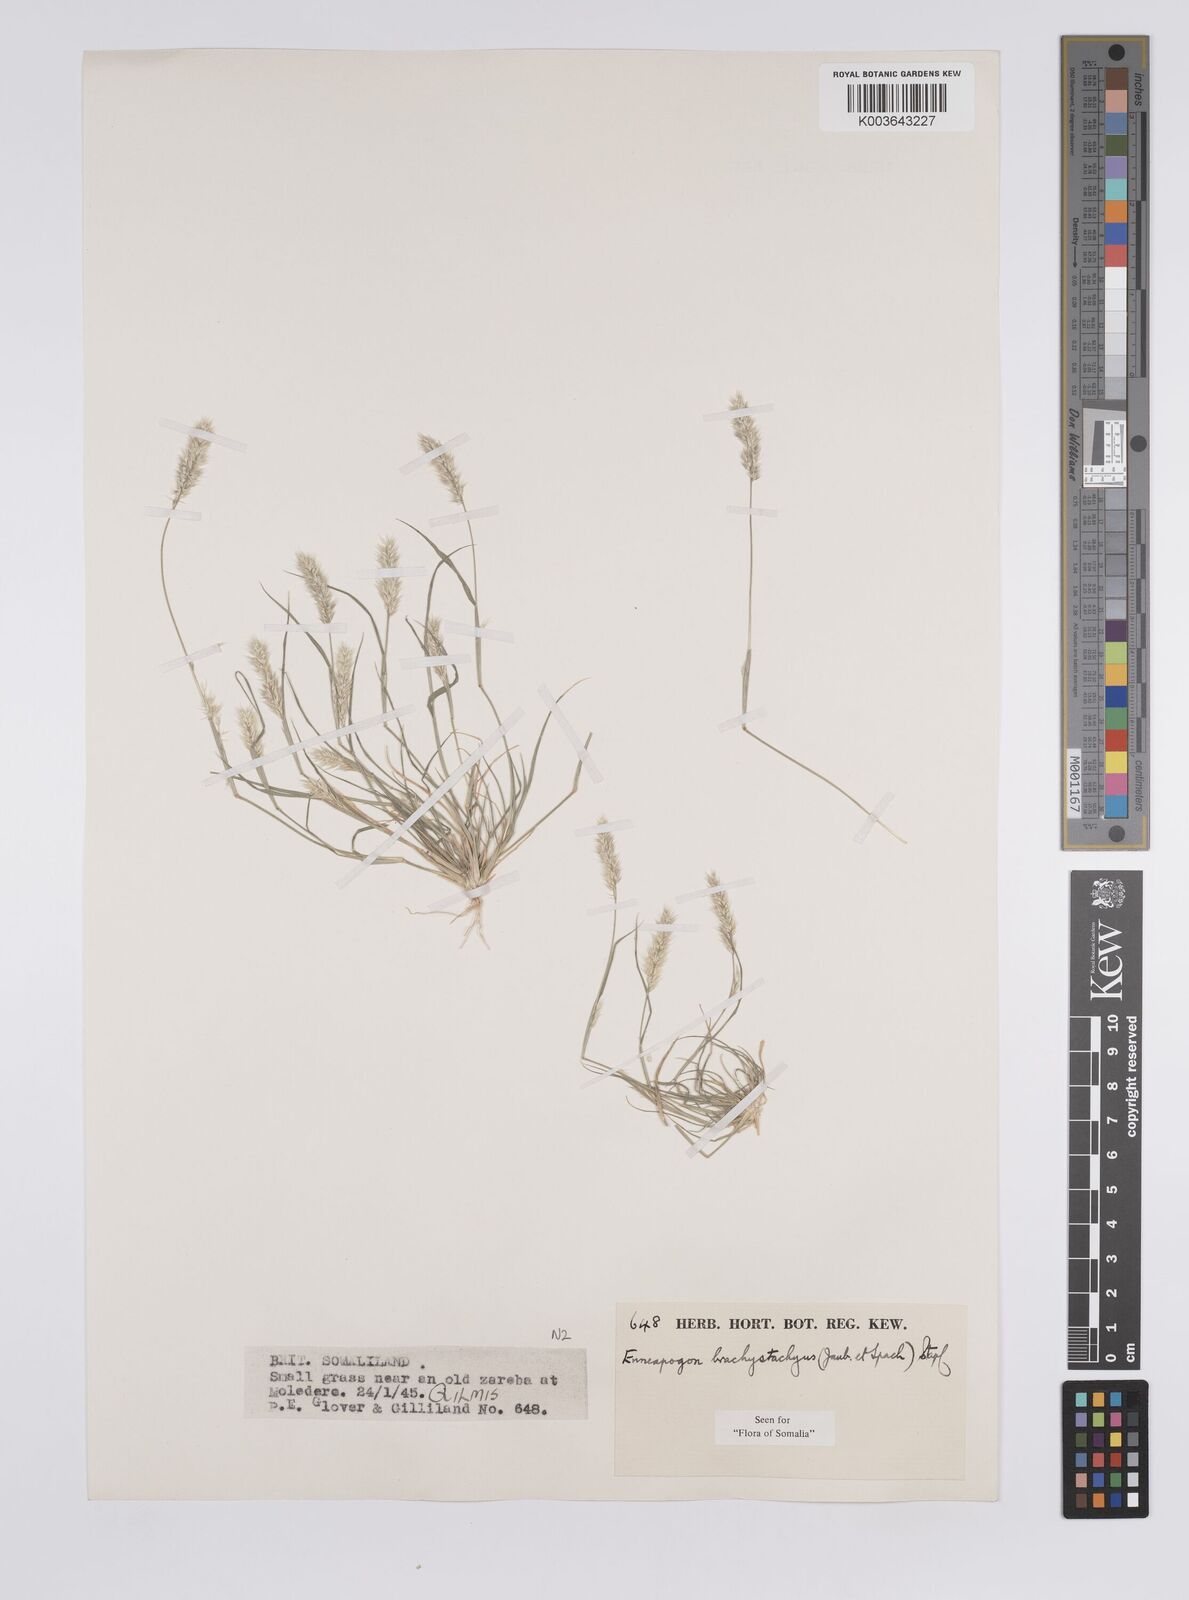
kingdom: Plantae
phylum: Tracheophyta
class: Liliopsida
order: Poales
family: Poaceae
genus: Enneapogon
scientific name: Enneapogon desvauxii
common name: Feather pappus grass
